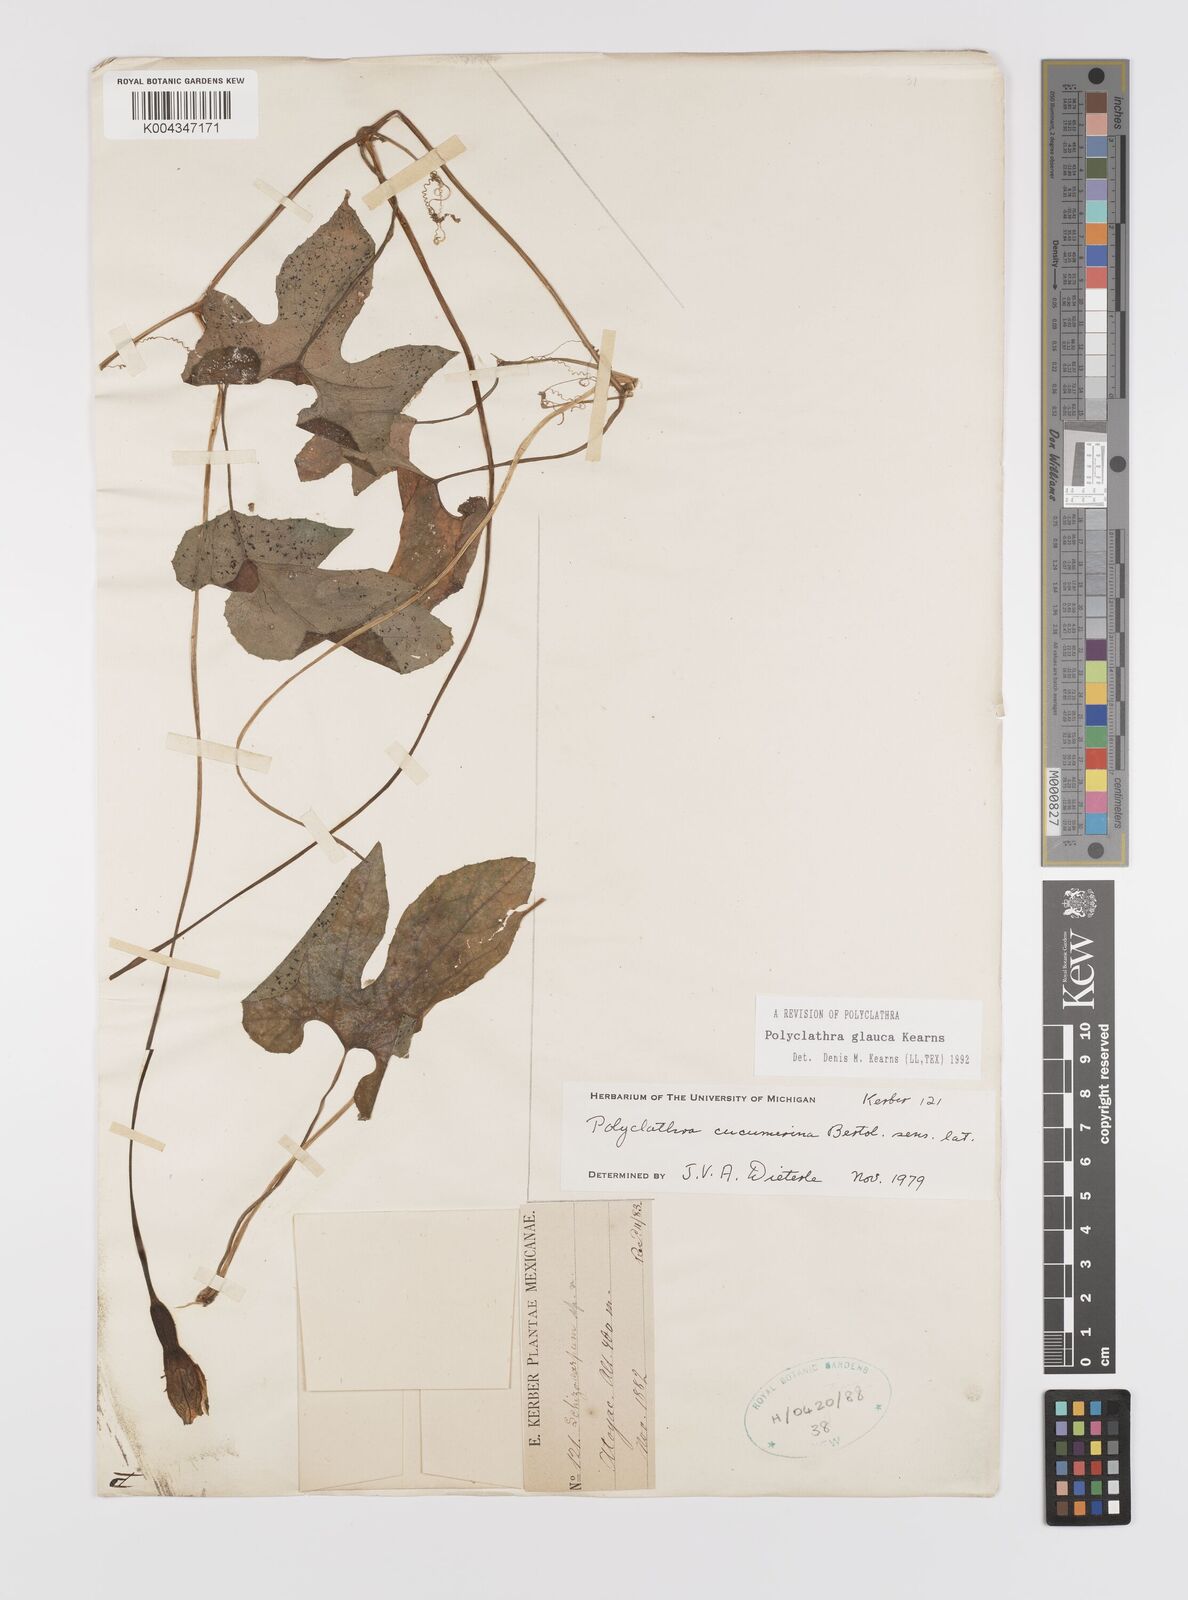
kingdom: Plantae
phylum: Tracheophyta
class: Magnoliopsida
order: Cucurbitales
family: Cucurbitaceae
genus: Polyclathra
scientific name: Polyclathra
